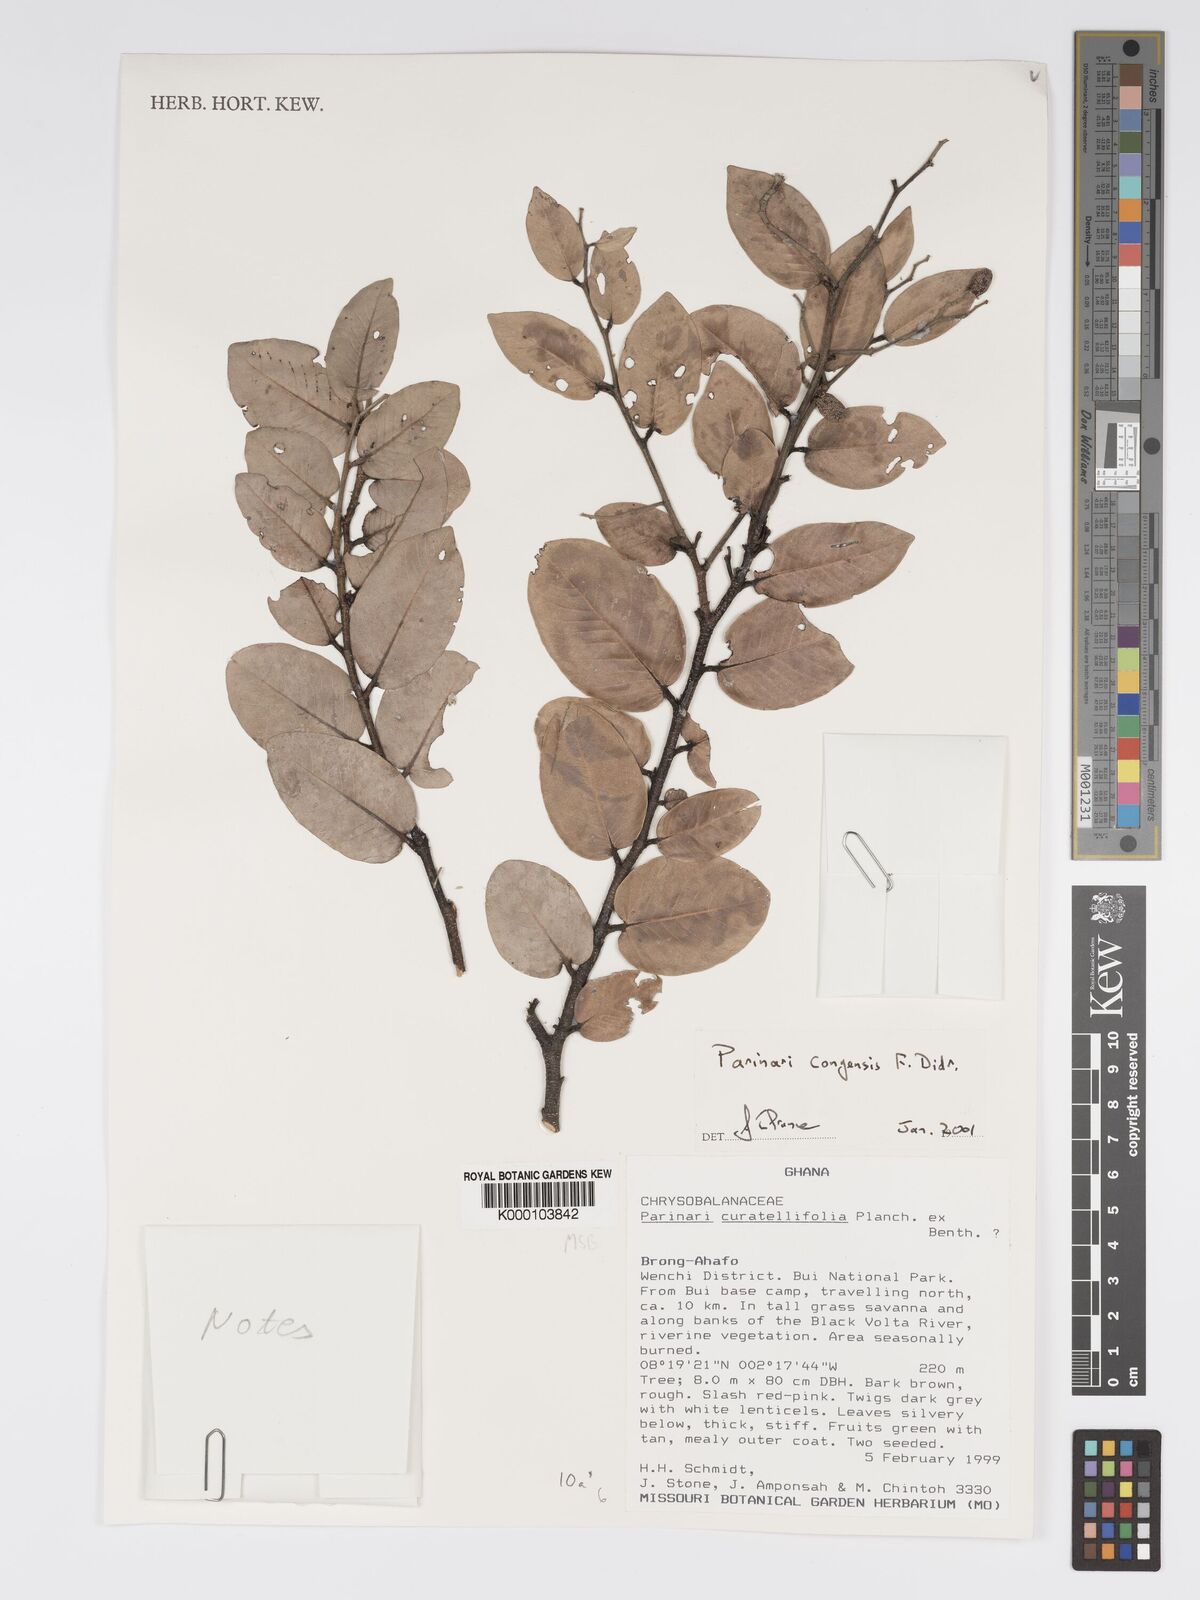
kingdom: Plantae
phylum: Tracheophyta
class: Magnoliopsida
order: Malpighiales
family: Chrysobalanaceae
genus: Parinari
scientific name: Parinari congensis
